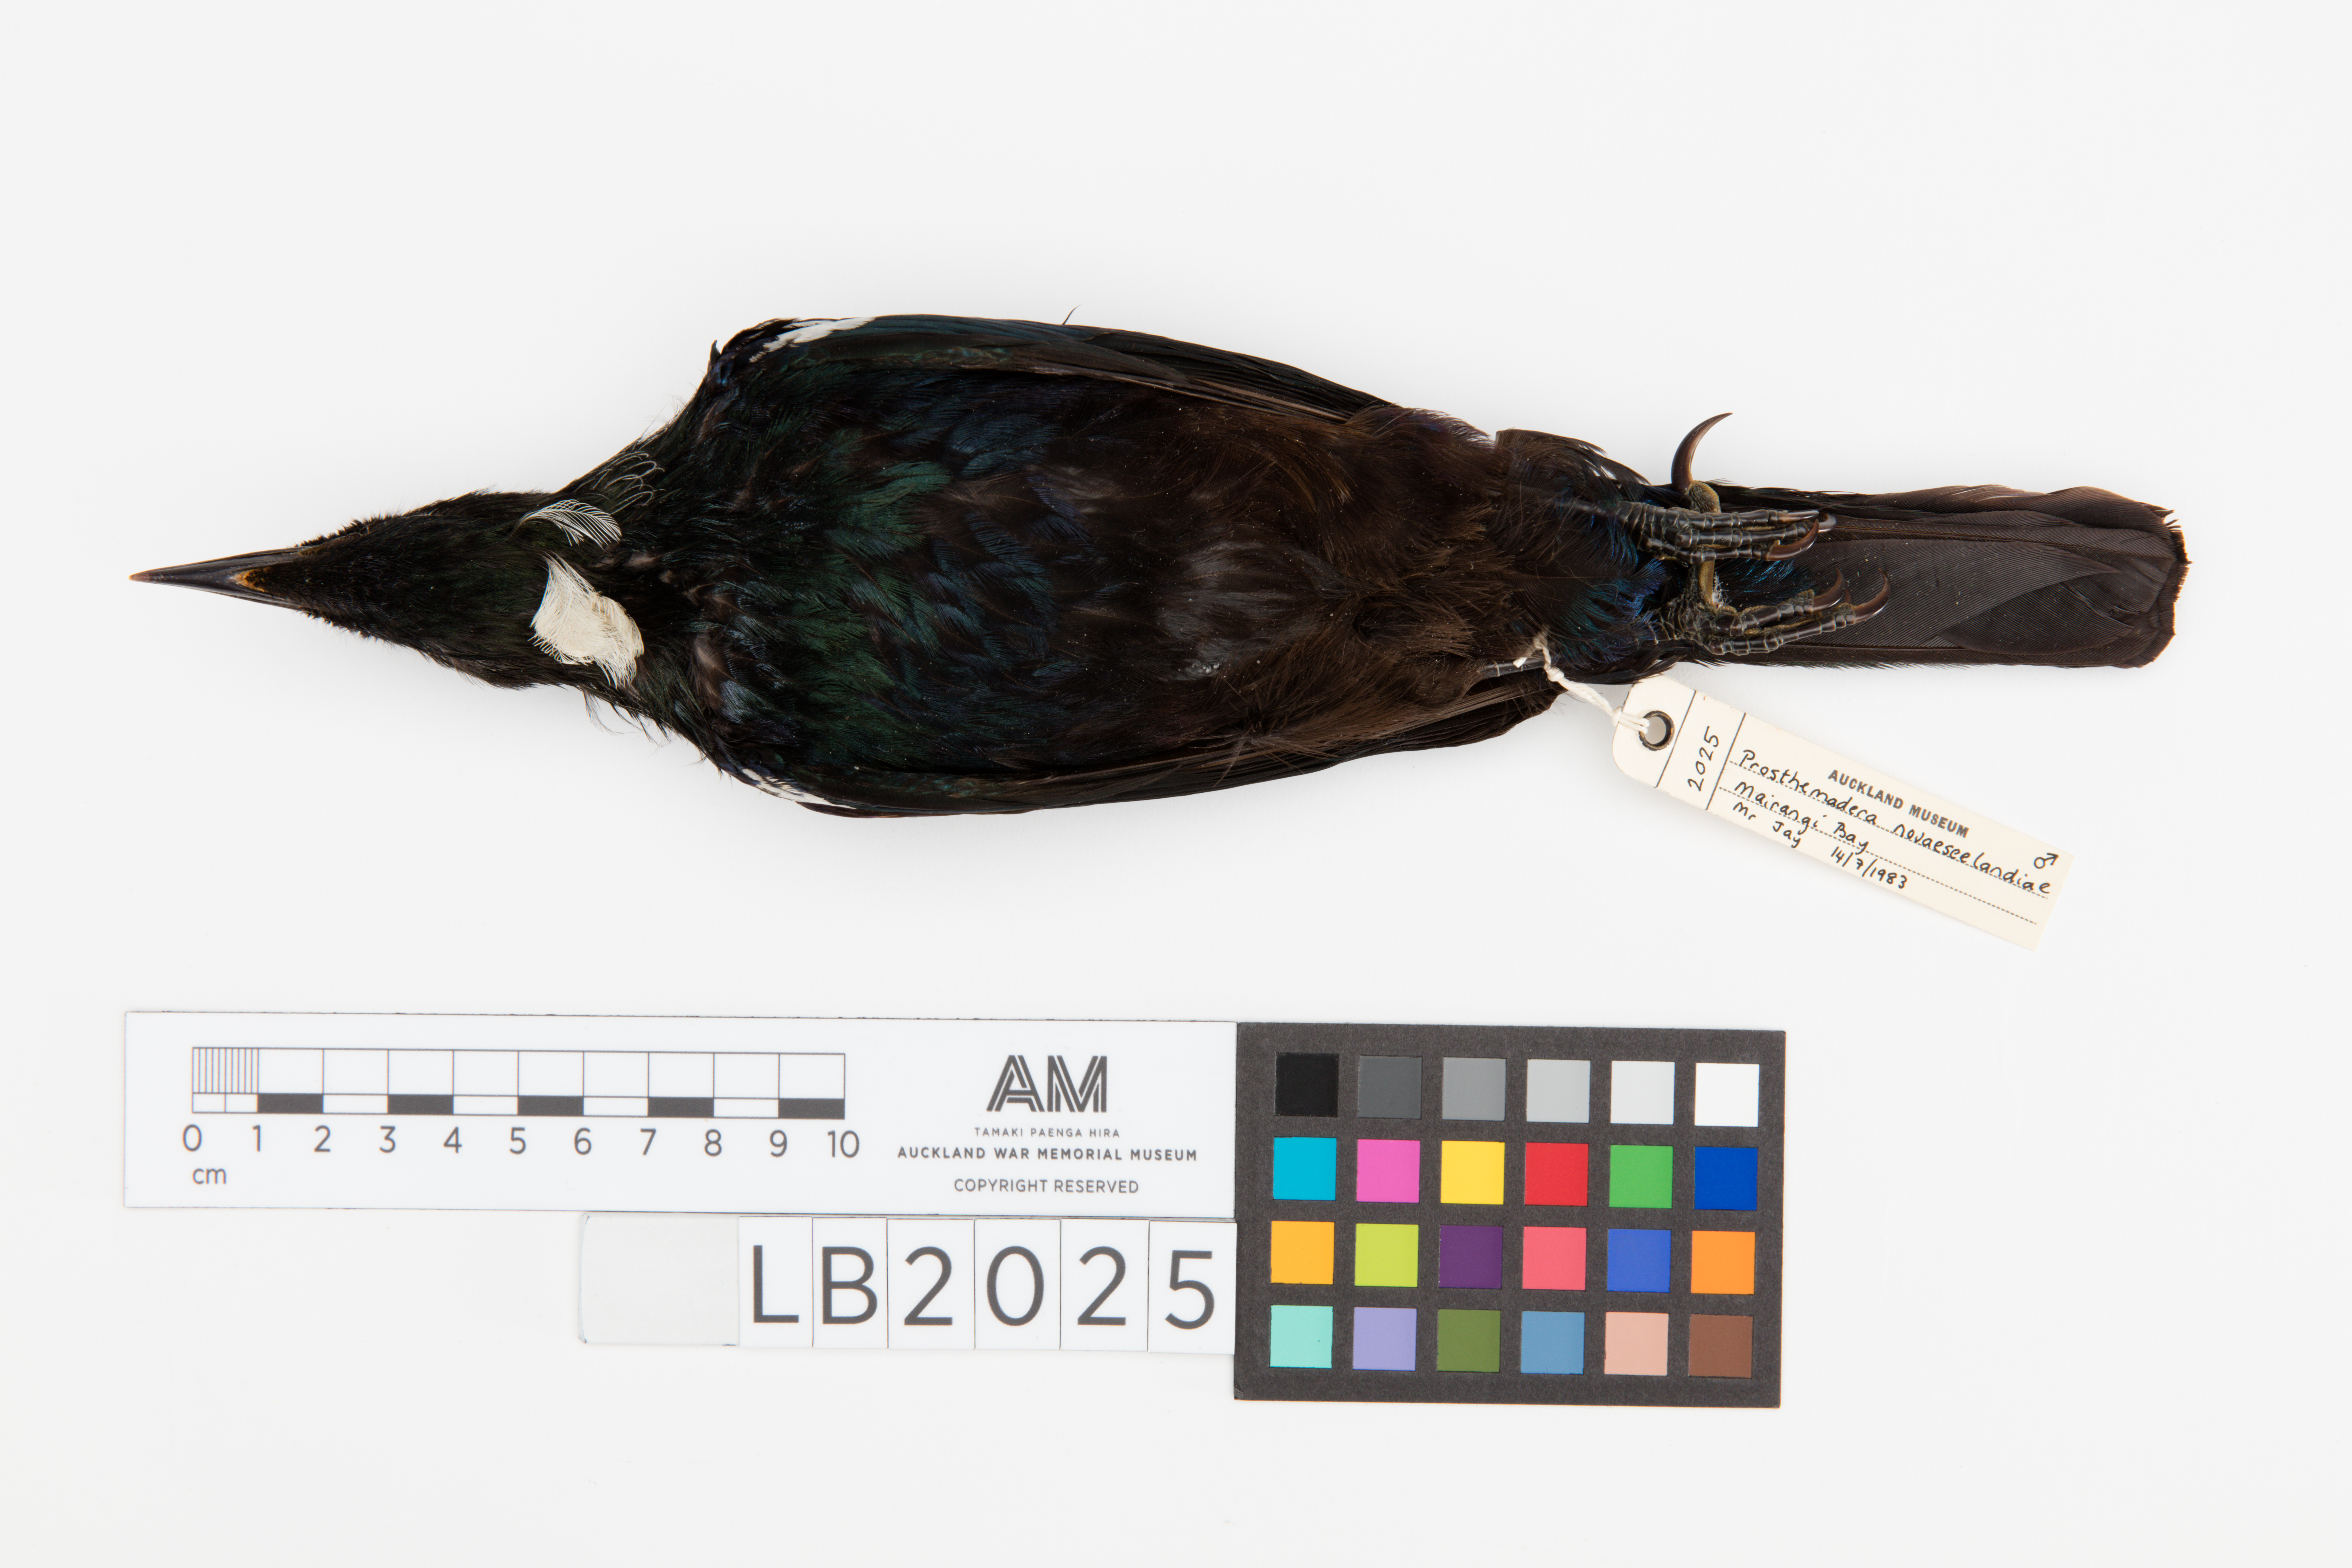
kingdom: Animalia
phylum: Chordata
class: Aves
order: Passeriformes
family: Meliphagidae
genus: Prosthemadera
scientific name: Prosthemadera novaeseelandiae
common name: Tui
